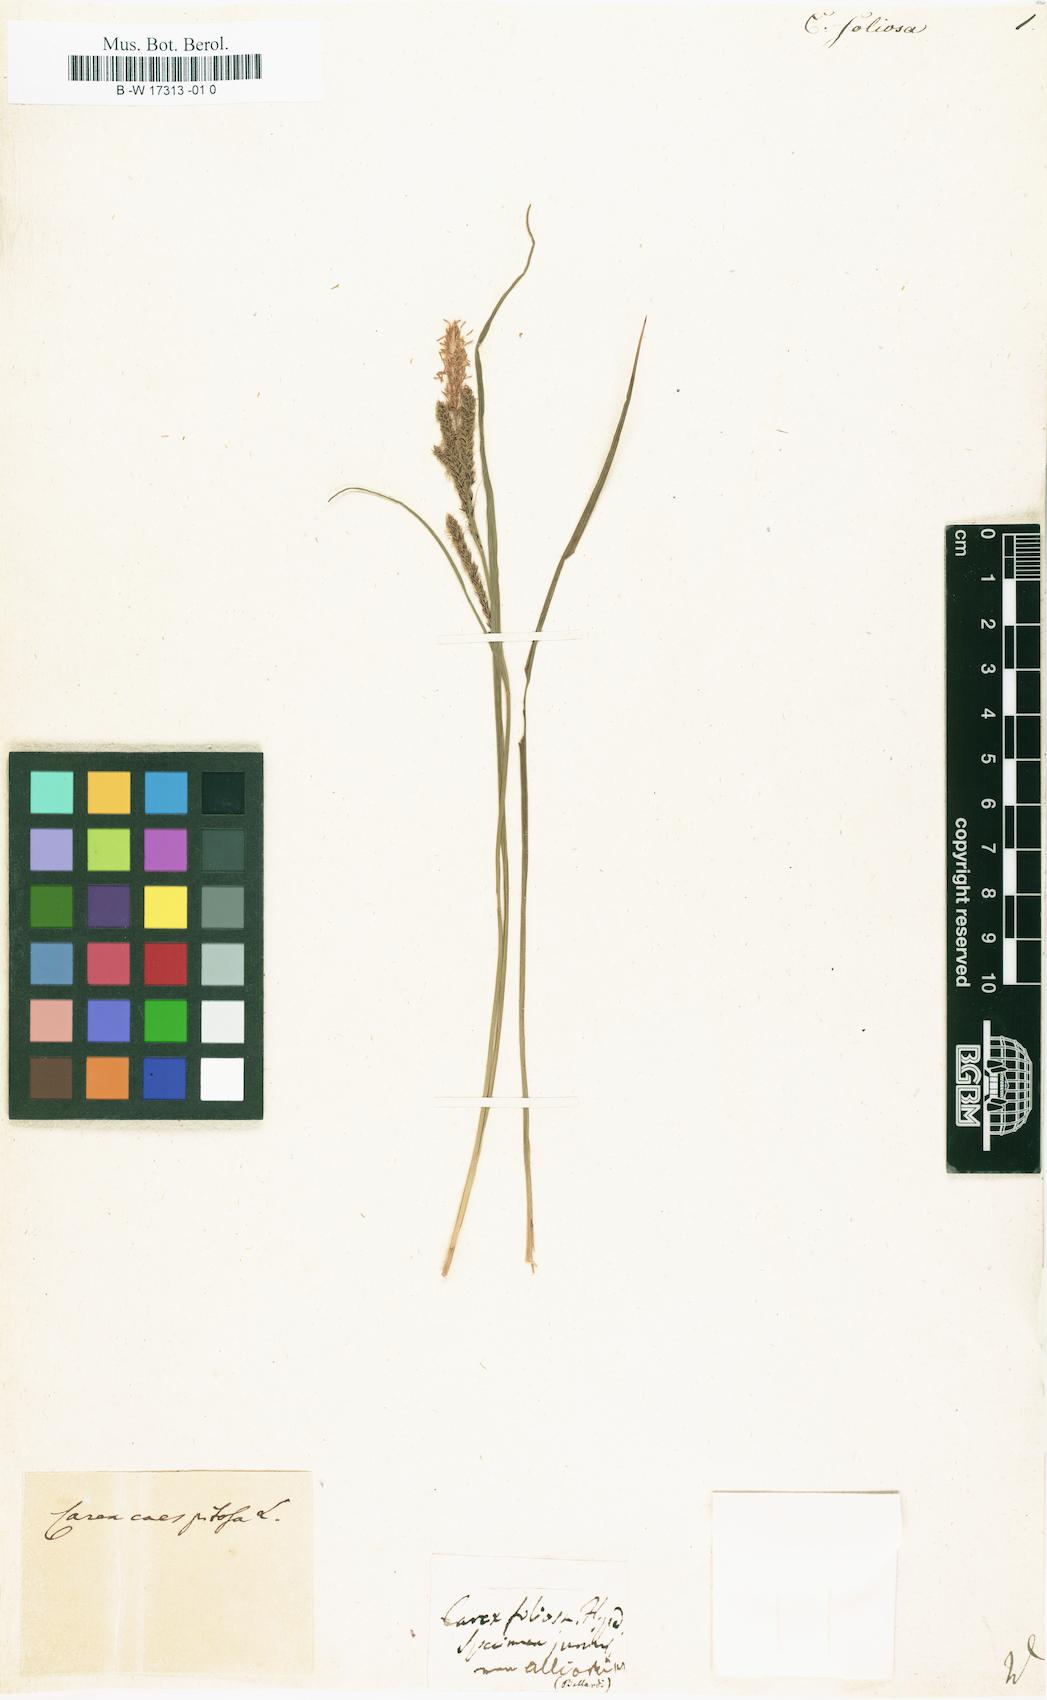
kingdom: Plantae
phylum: Tracheophyta
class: Liliopsida
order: Poales
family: Cyperaceae
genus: Carex
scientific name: Carex
